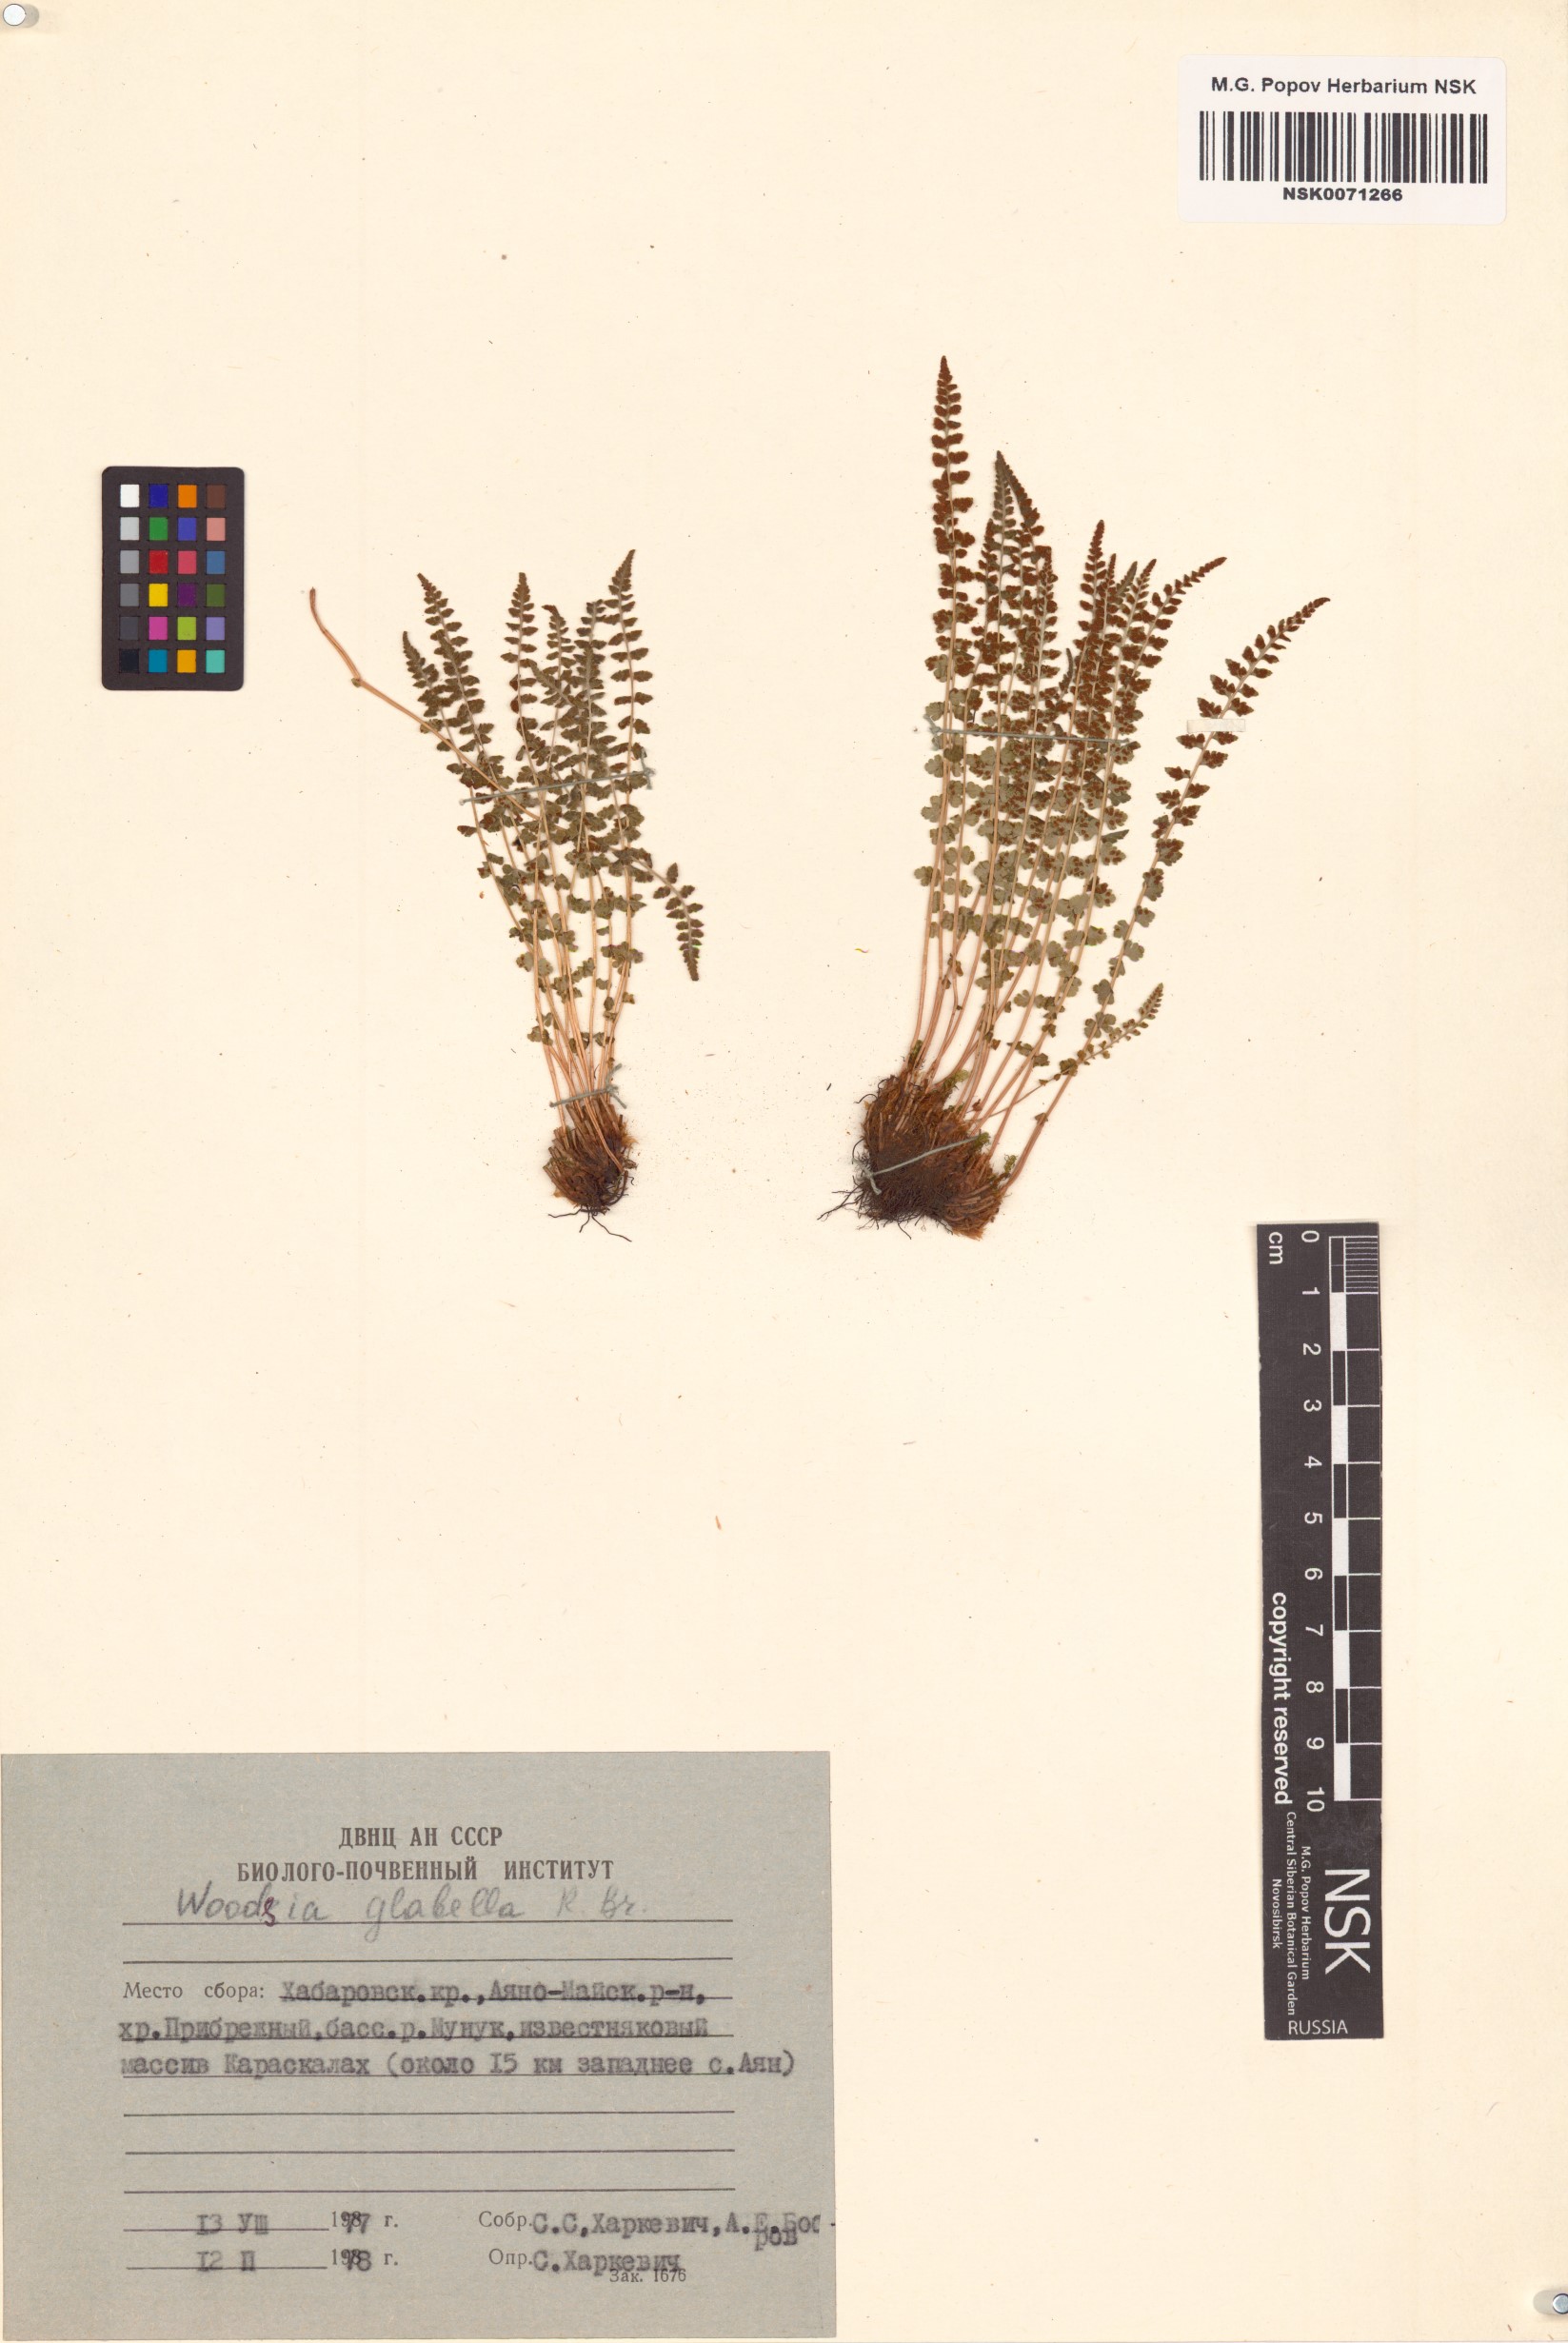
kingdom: Plantae
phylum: Tracheophyta
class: Polypodiopsida
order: Polypodiales
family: Woodsiaceae
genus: Woodsia
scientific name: Woodsia glabella
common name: Smooth woodsia
